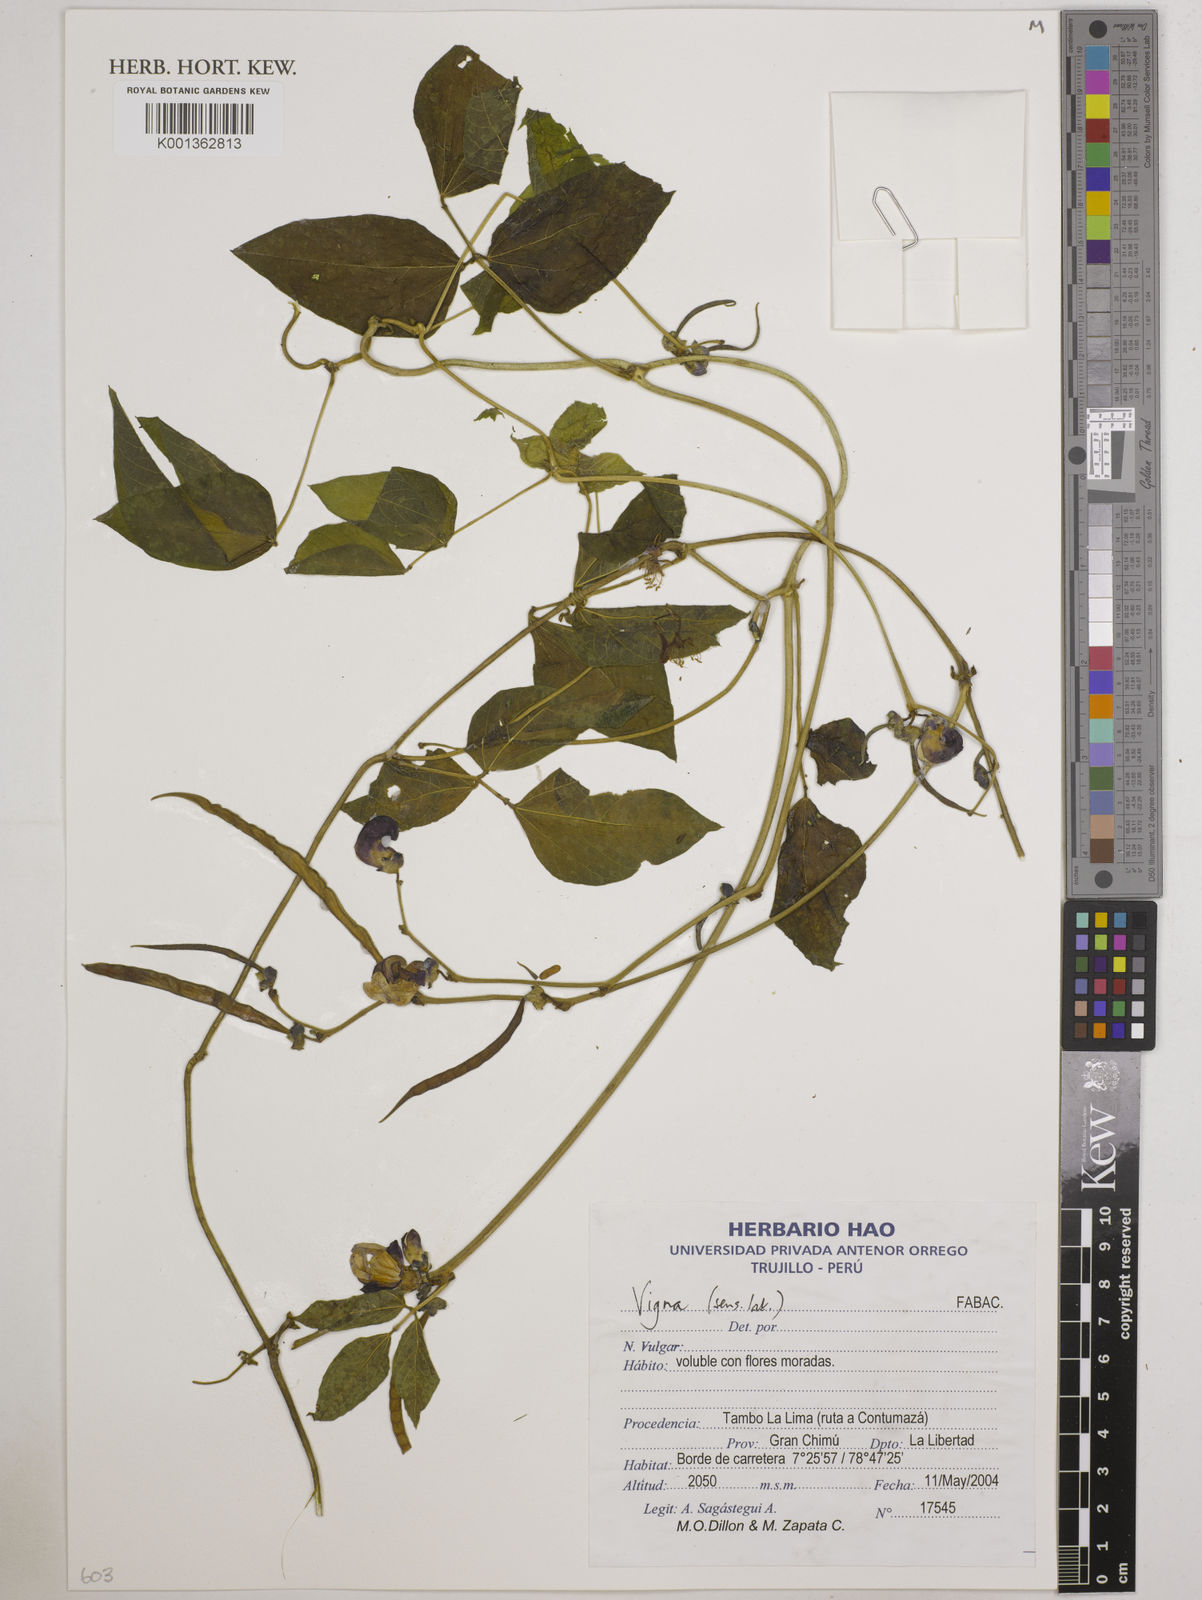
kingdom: Plantae
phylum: Tracheophyta
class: Magnoliopsida
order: Fabales
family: Fabaceae
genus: Vigna
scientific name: Vigna
